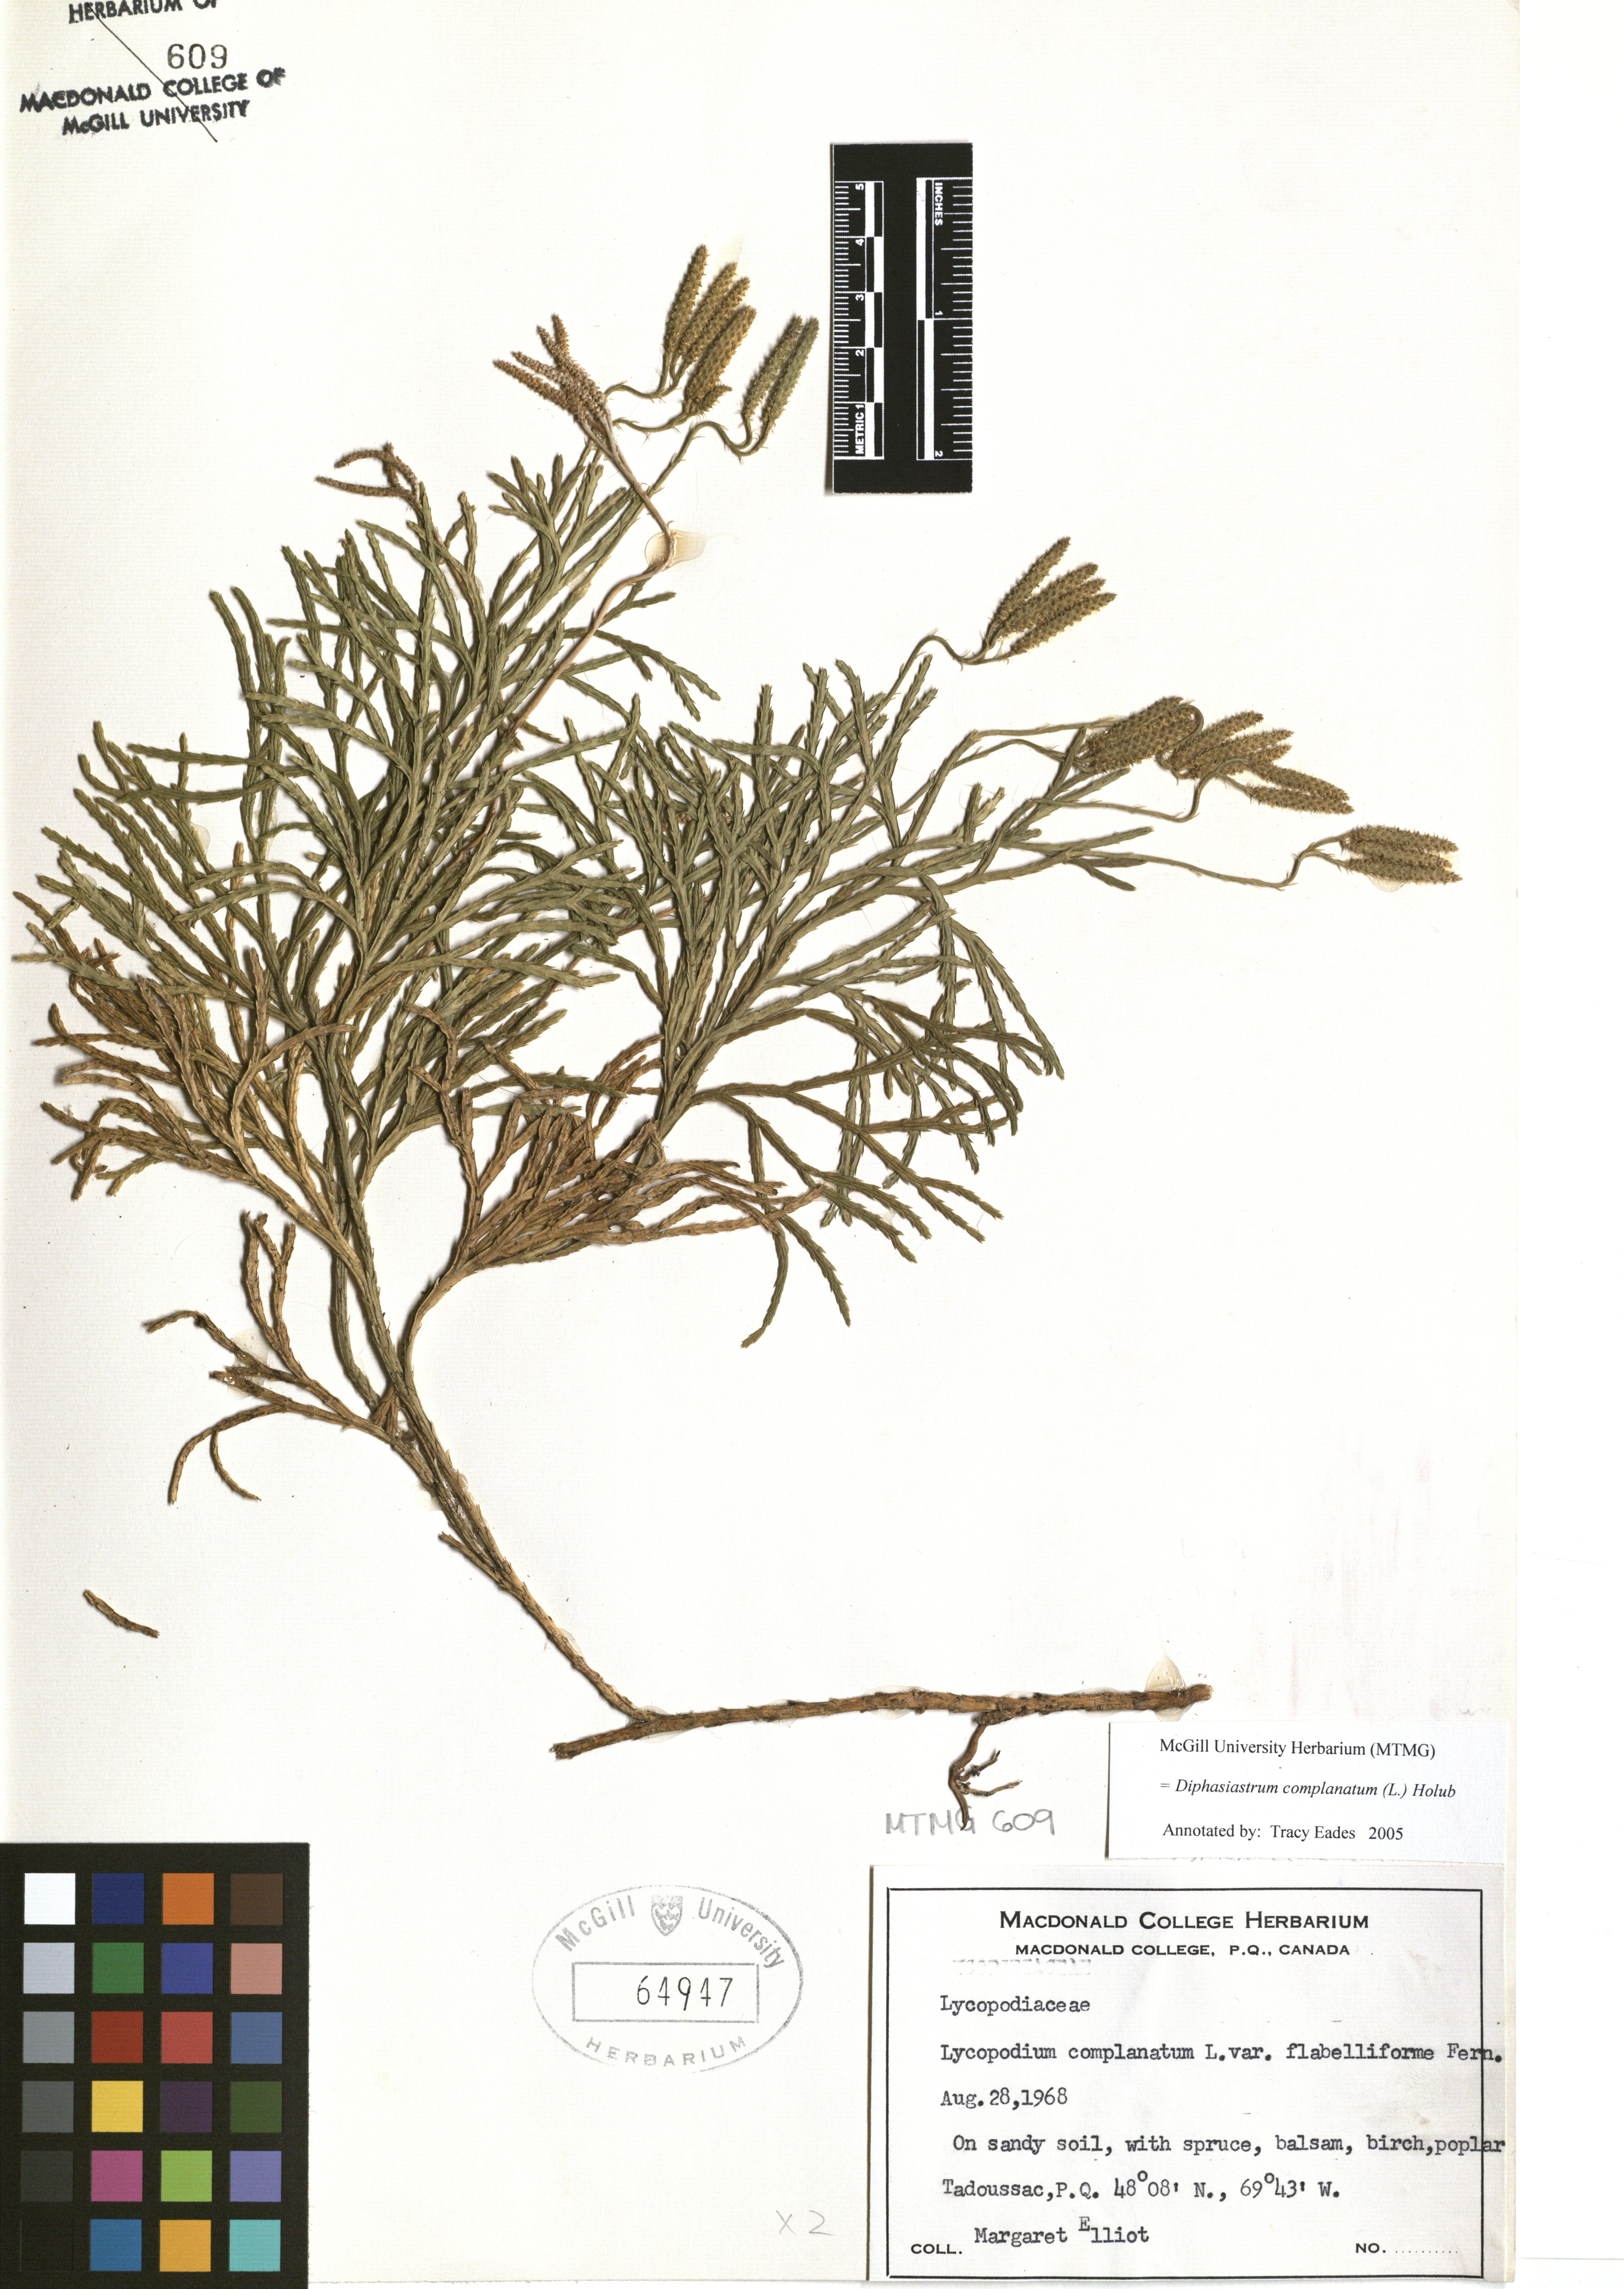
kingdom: Plantae
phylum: Tracheophyta
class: Lycopodiopsida
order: Lycopodiales
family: Lycopodiaceae
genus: Diphasiastrum
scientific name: Diphasiastrum complanatum
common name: Northern running-pine
